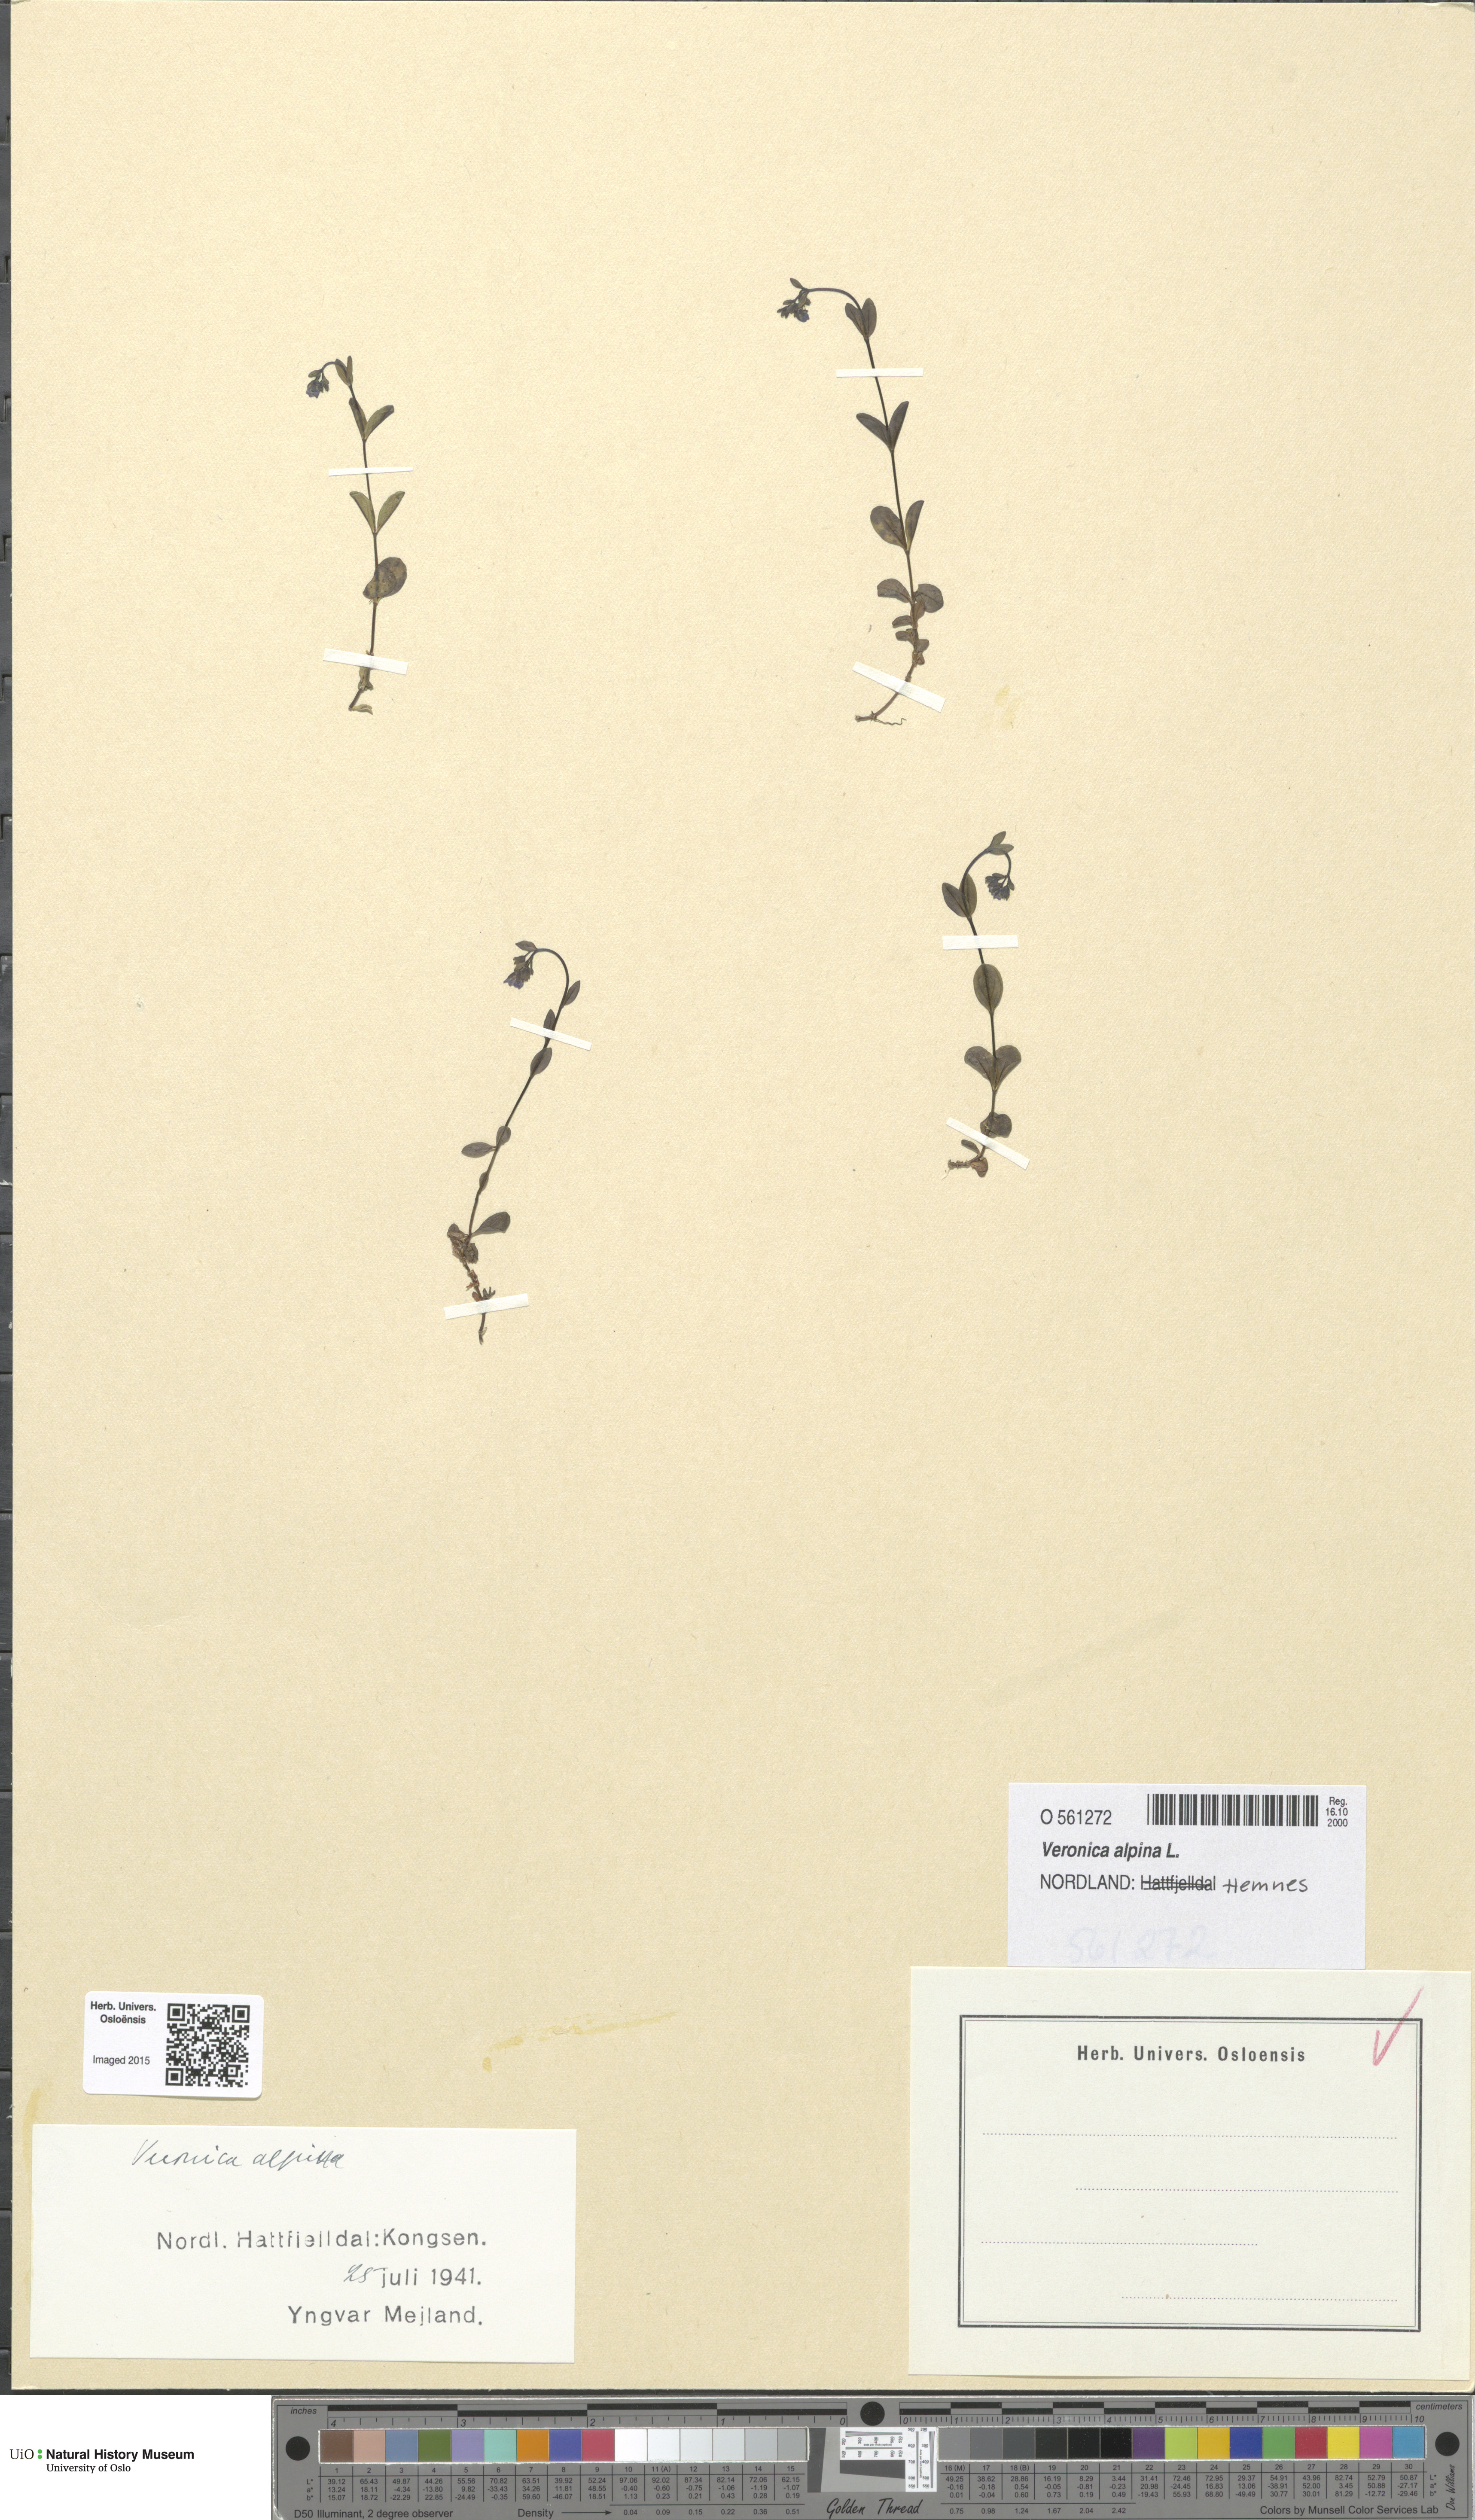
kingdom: Plantae
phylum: Tracheophyta
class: Magnoliopsida
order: Lamiales
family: Plantaginaceae
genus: Veronica
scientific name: Veronica alpina
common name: Alpine speedwell
